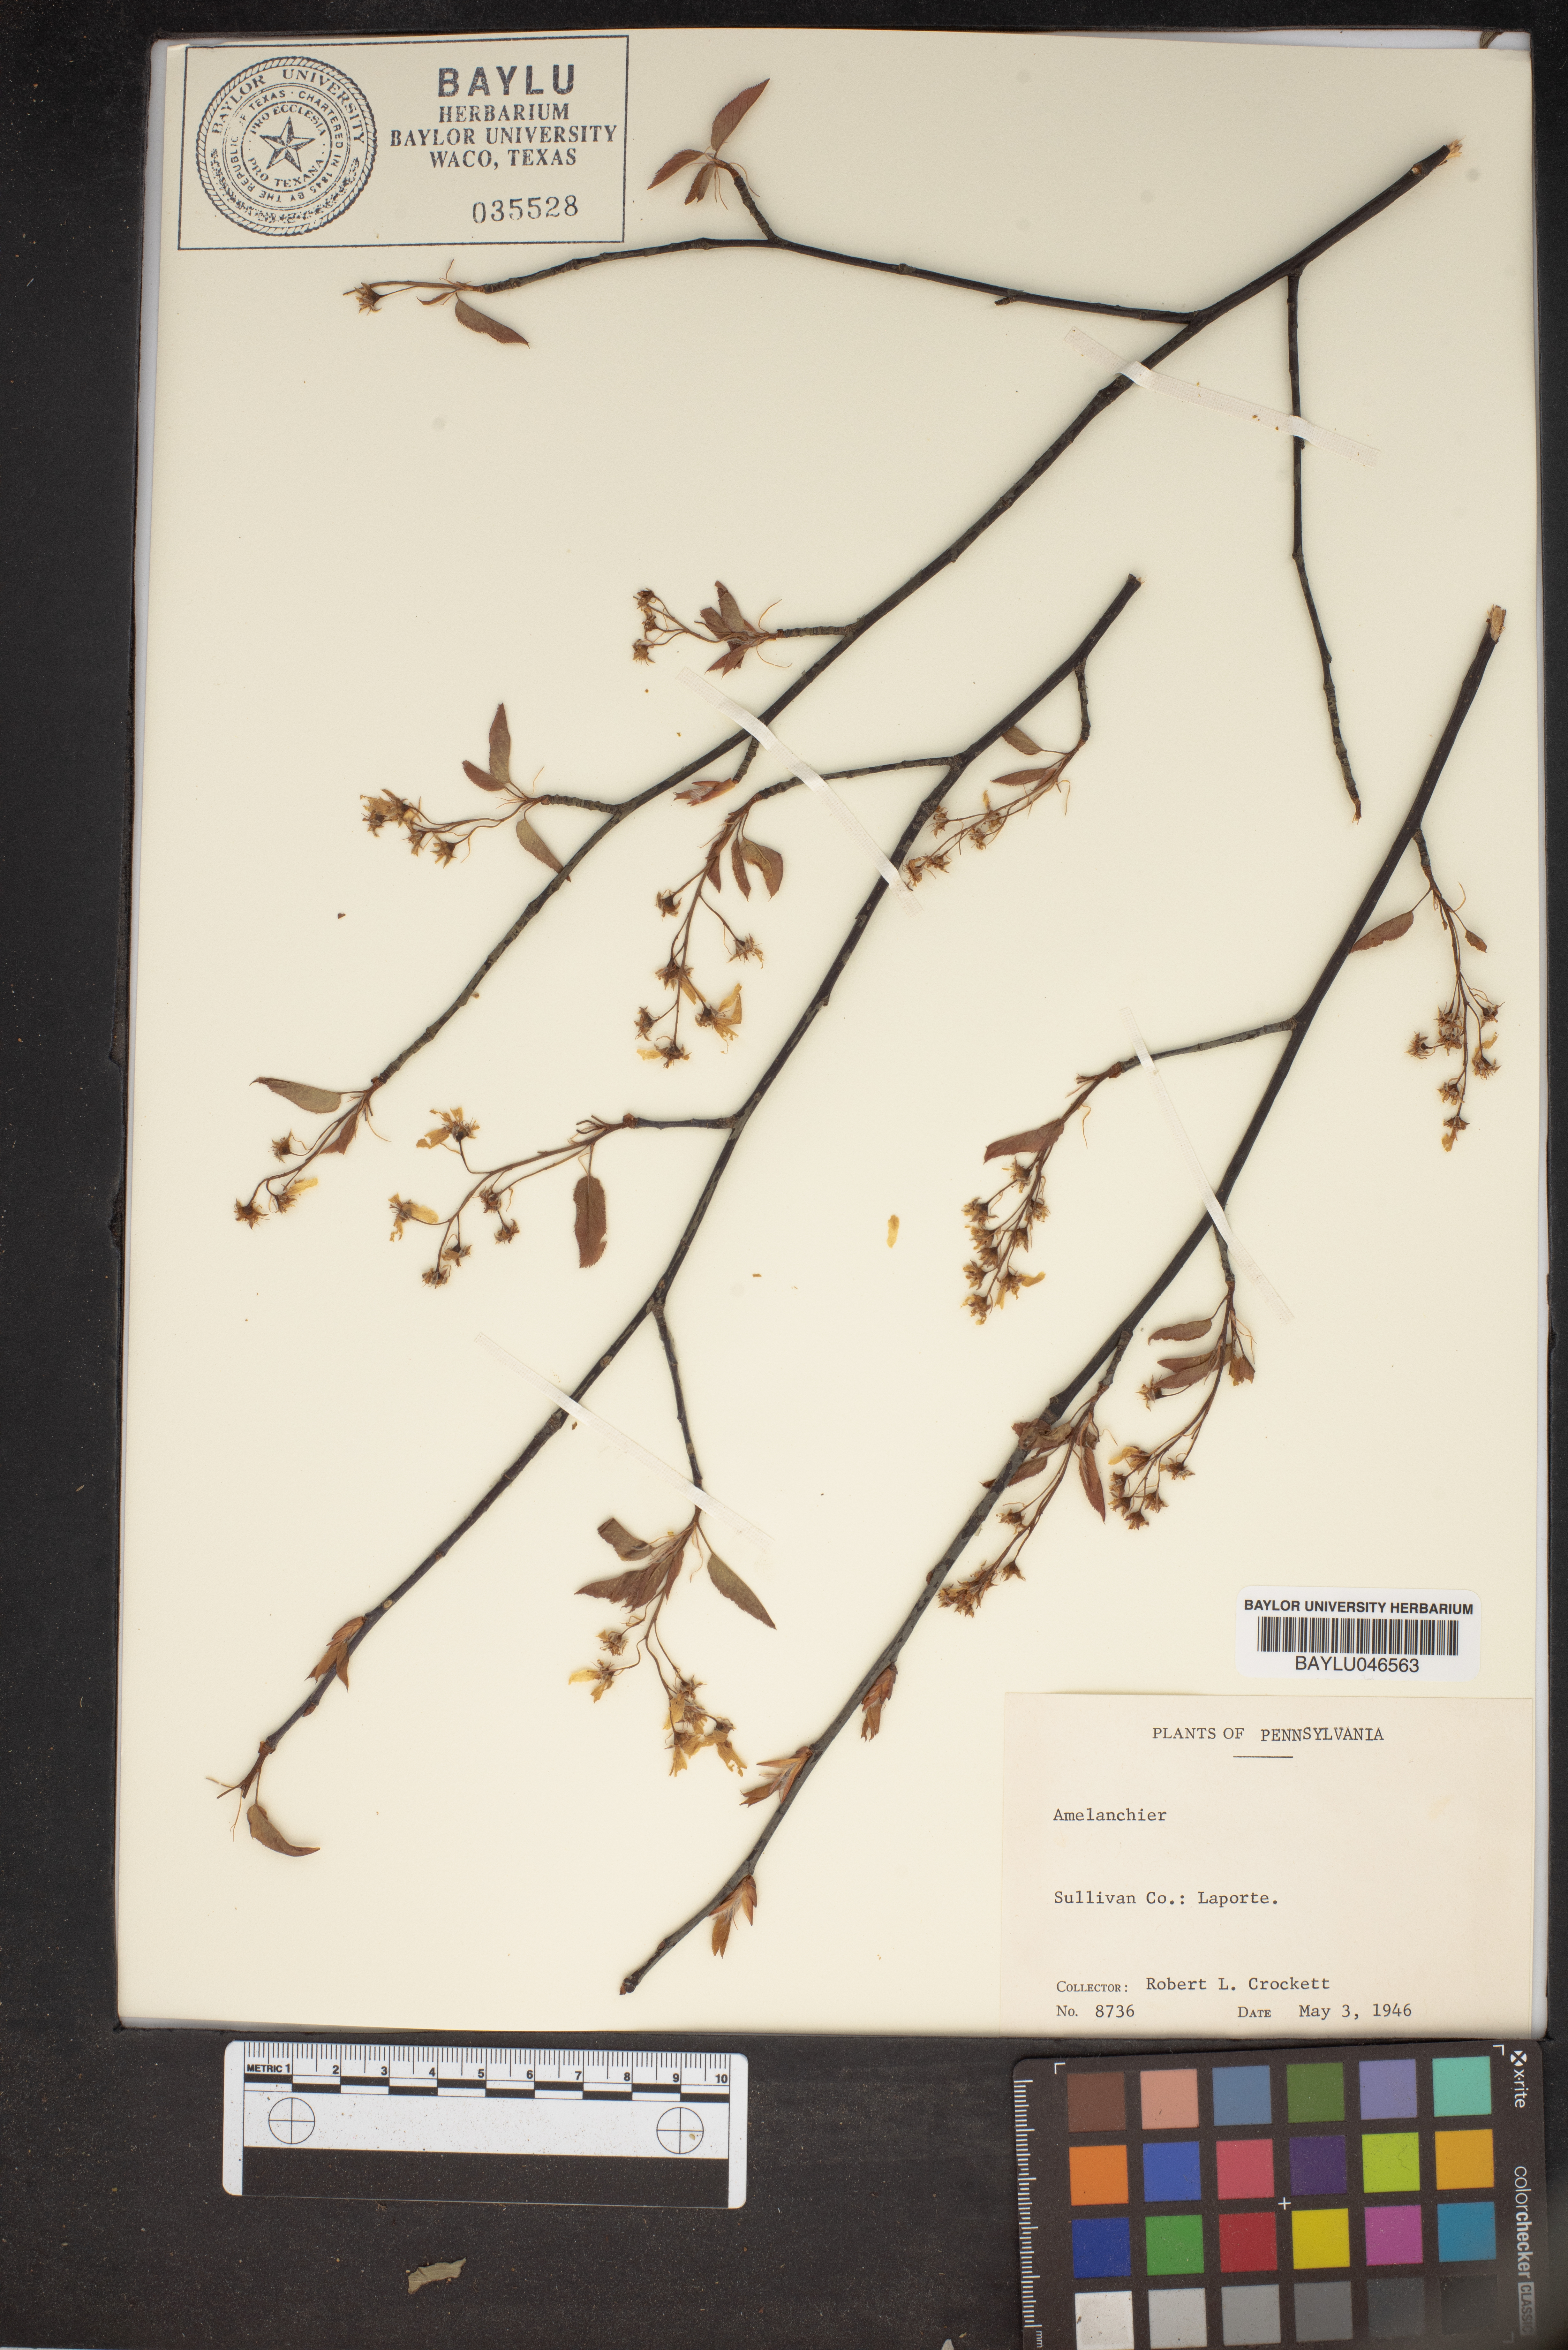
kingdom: Plantae
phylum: Tracheophyta
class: Magnoliopsida
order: Rosales
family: Rosaceae
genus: Amelanchier
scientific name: Amelanchier
